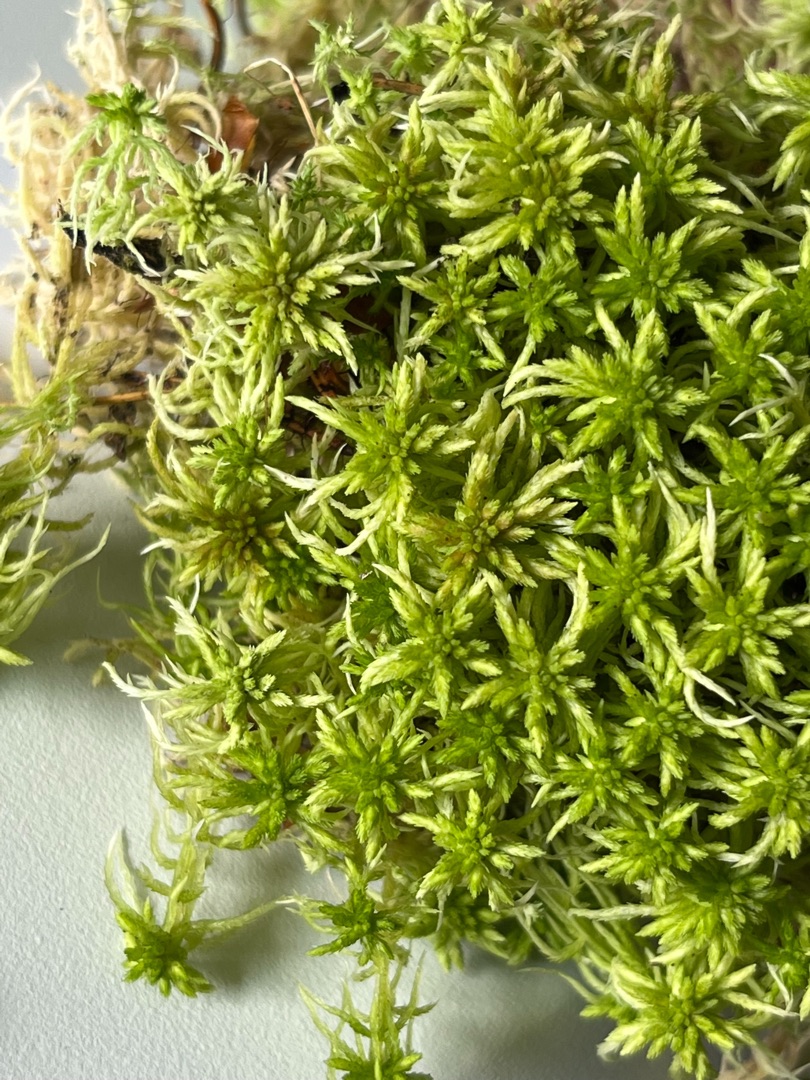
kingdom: Plantae
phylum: Bryophyta
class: Sphagnopsida
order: Sphagnales
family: Sphagnaceae
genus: Sphagnum
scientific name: Sphagnum russowii
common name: Spraglet tørvemos
